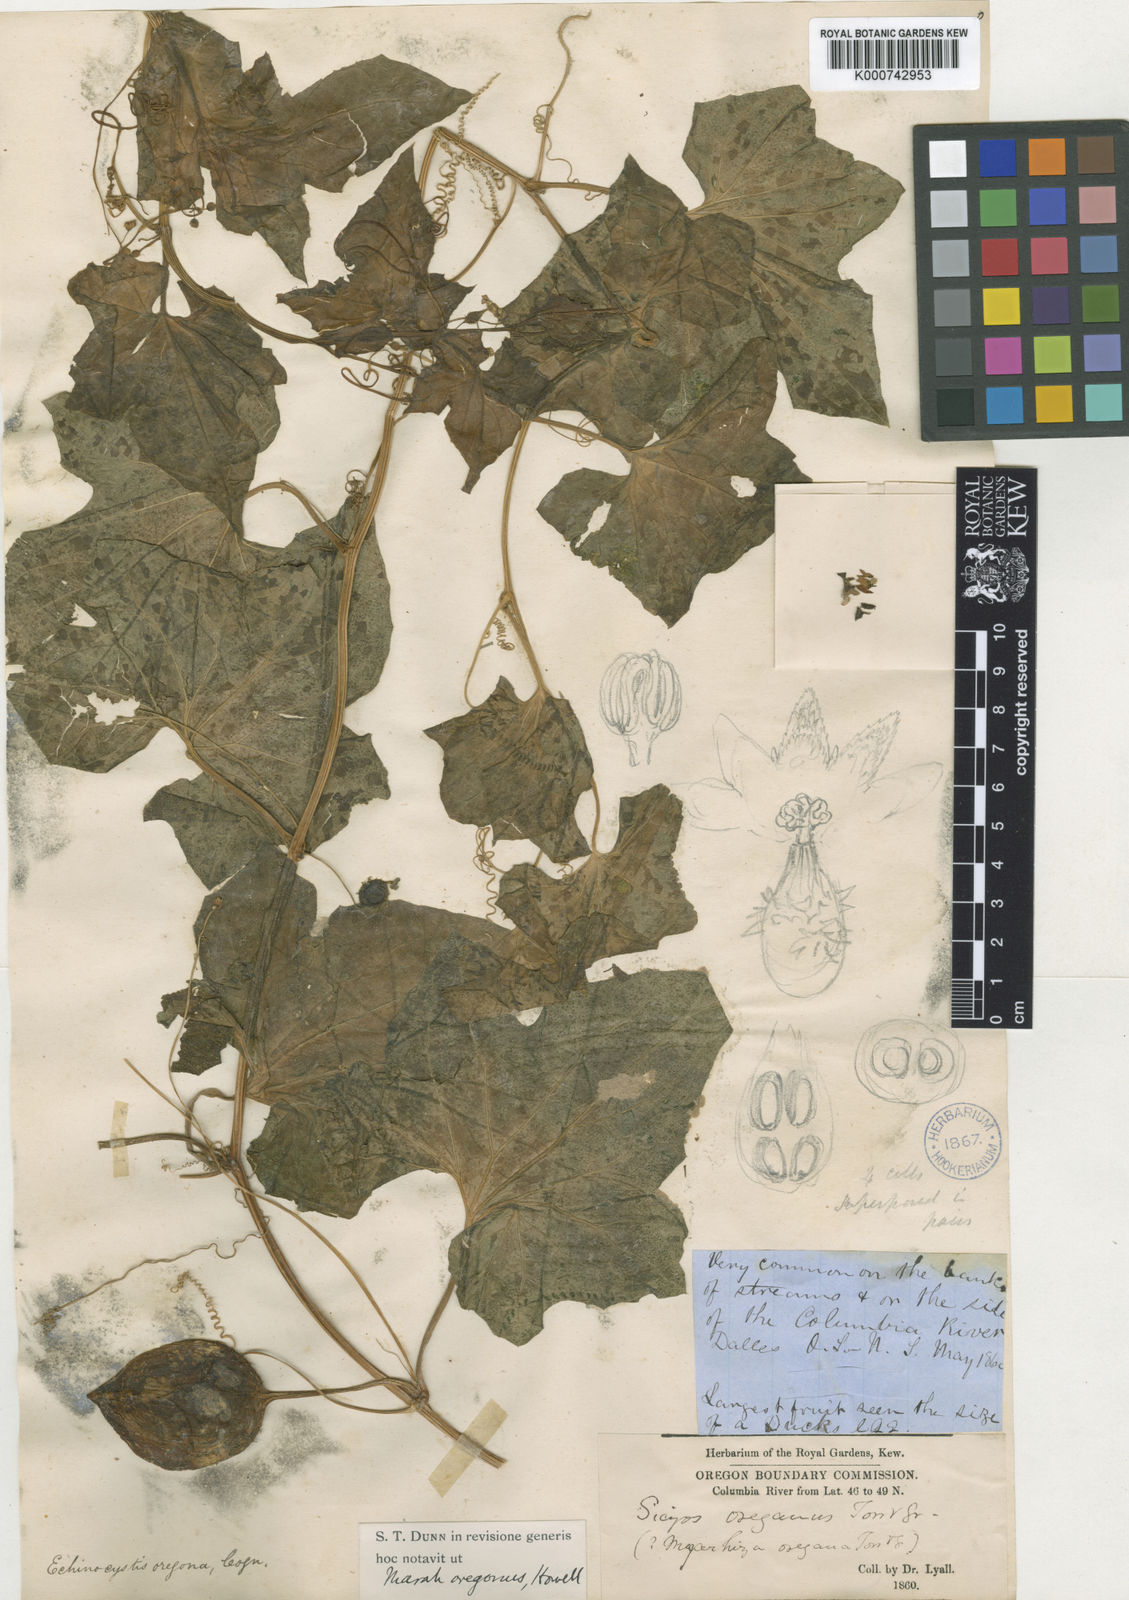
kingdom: Plantae
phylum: Tracheophyta
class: Magnoliopsida
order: Cucurbitales
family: Cucurbitaceae
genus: Marah
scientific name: Marah
